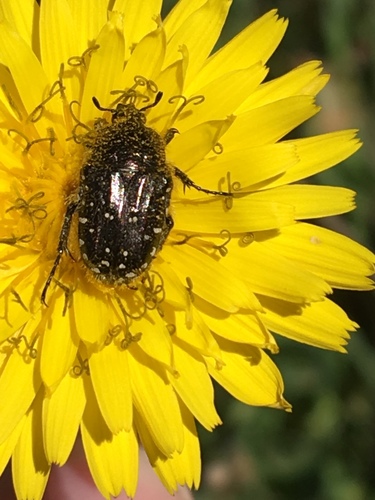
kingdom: Animalia
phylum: Arthropoda
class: Insecta
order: Coleoptera
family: Scarabaeidae
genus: Oxythyrea
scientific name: Oxythyrea funesta
